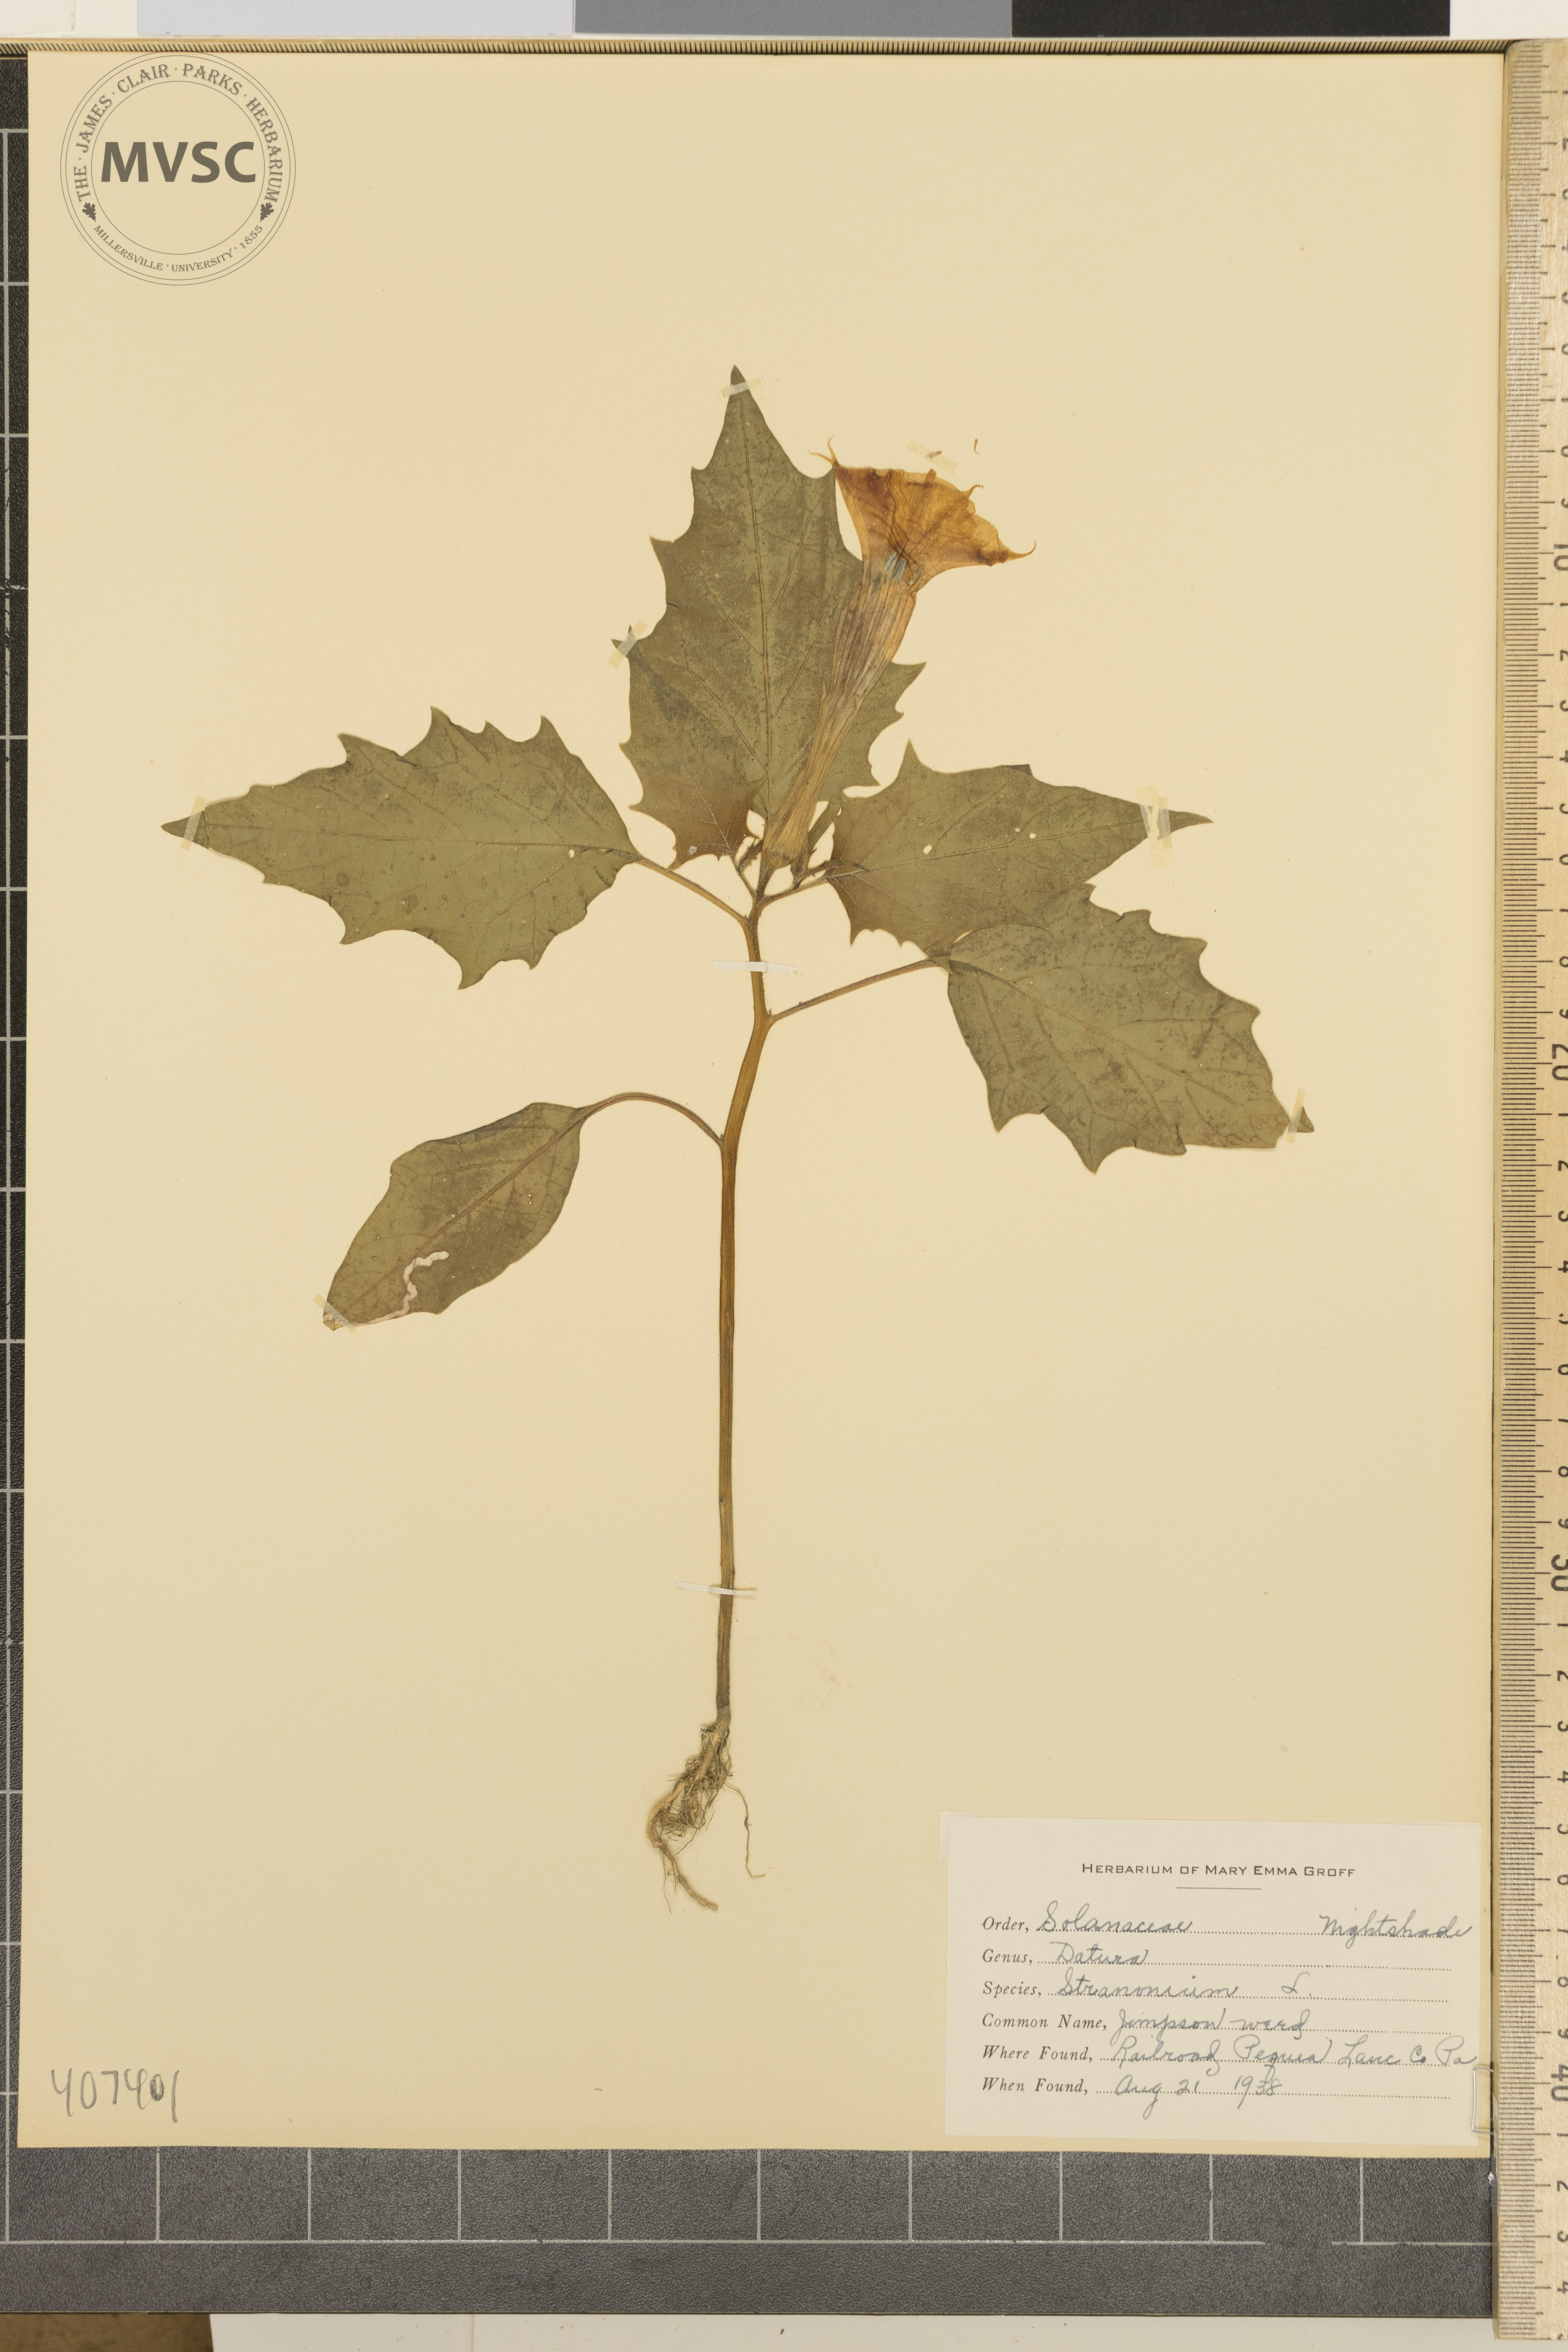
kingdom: Plantae
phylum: Tracheophyta
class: Magnoliopsida
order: Solanales
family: Solanaceae
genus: Datura
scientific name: Datura stramonium
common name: jimson weed
